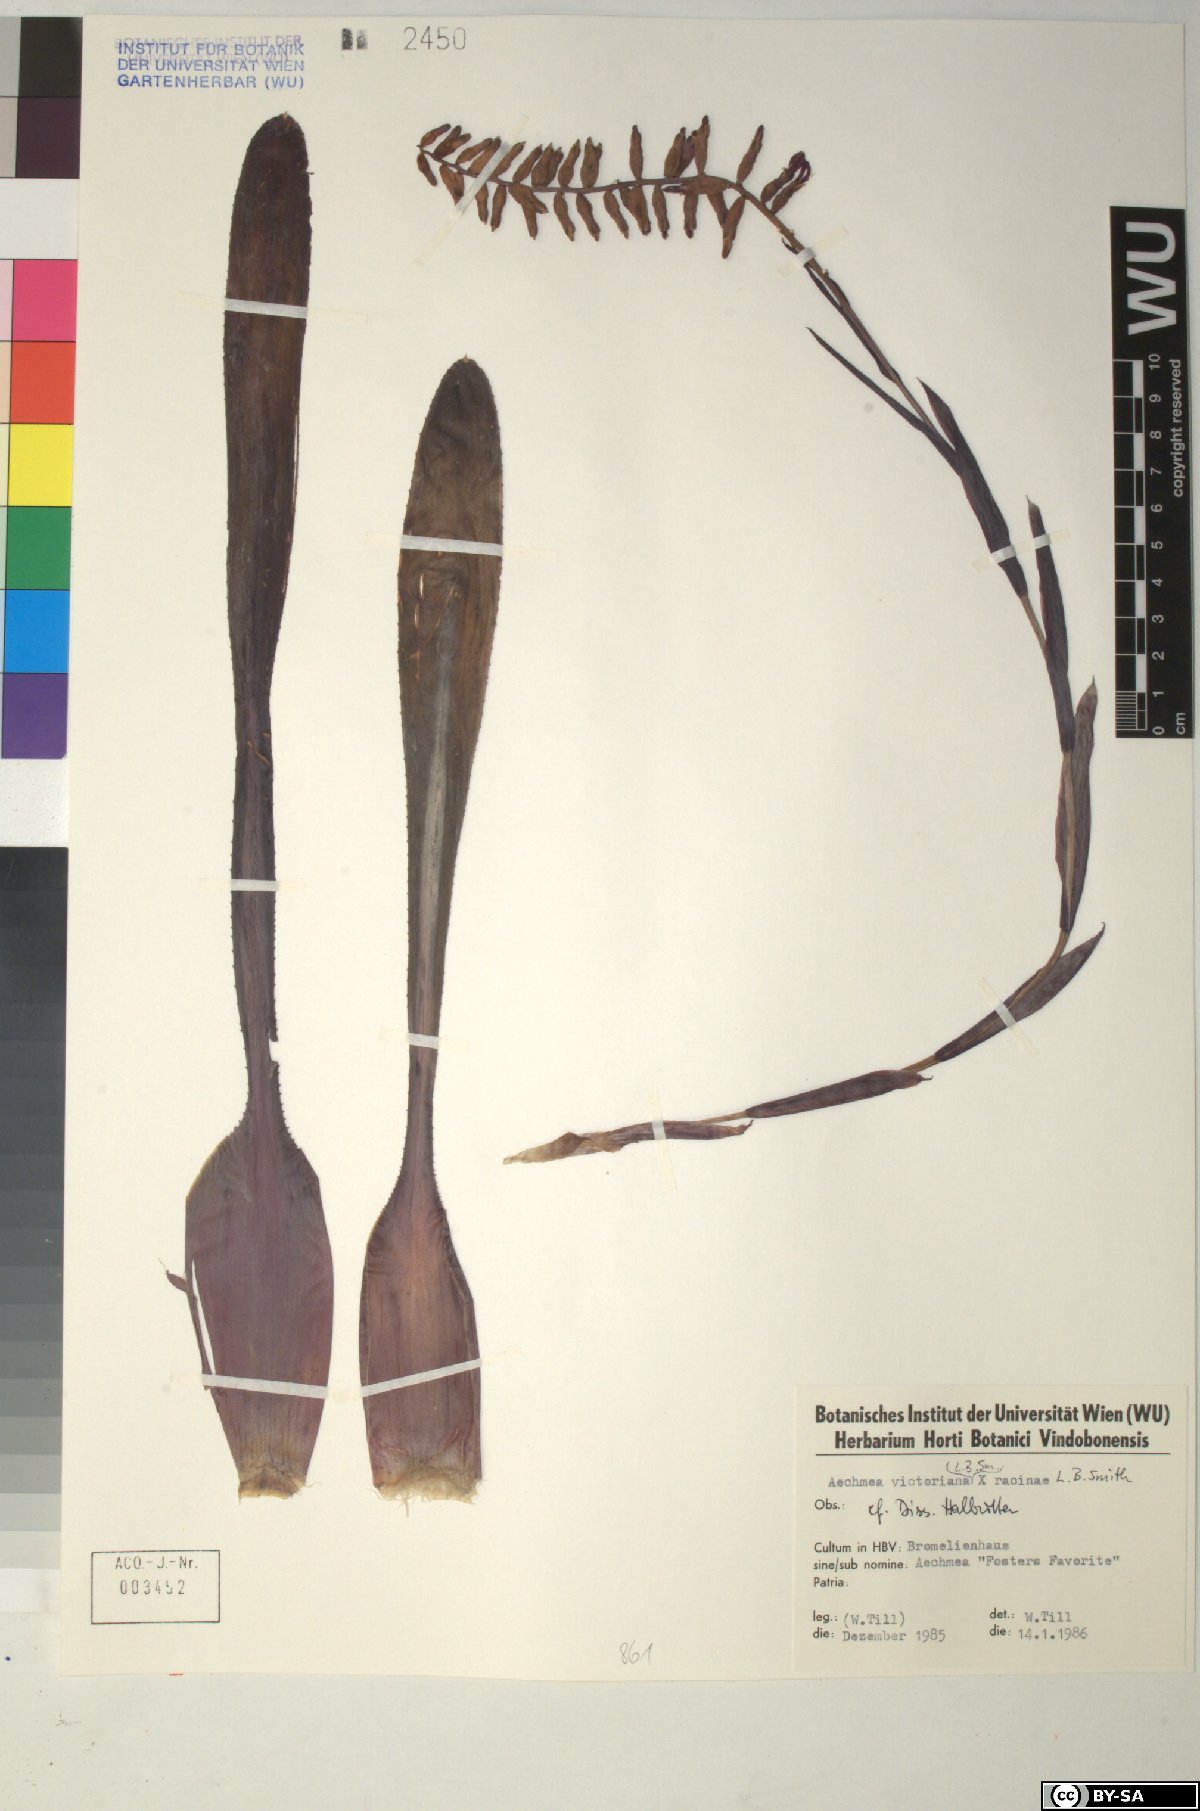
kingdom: Plantae
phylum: Tracheophyta
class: Liliopsida
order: Poales
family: Bromeliaceae
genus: Aechmea
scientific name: Aechmea
